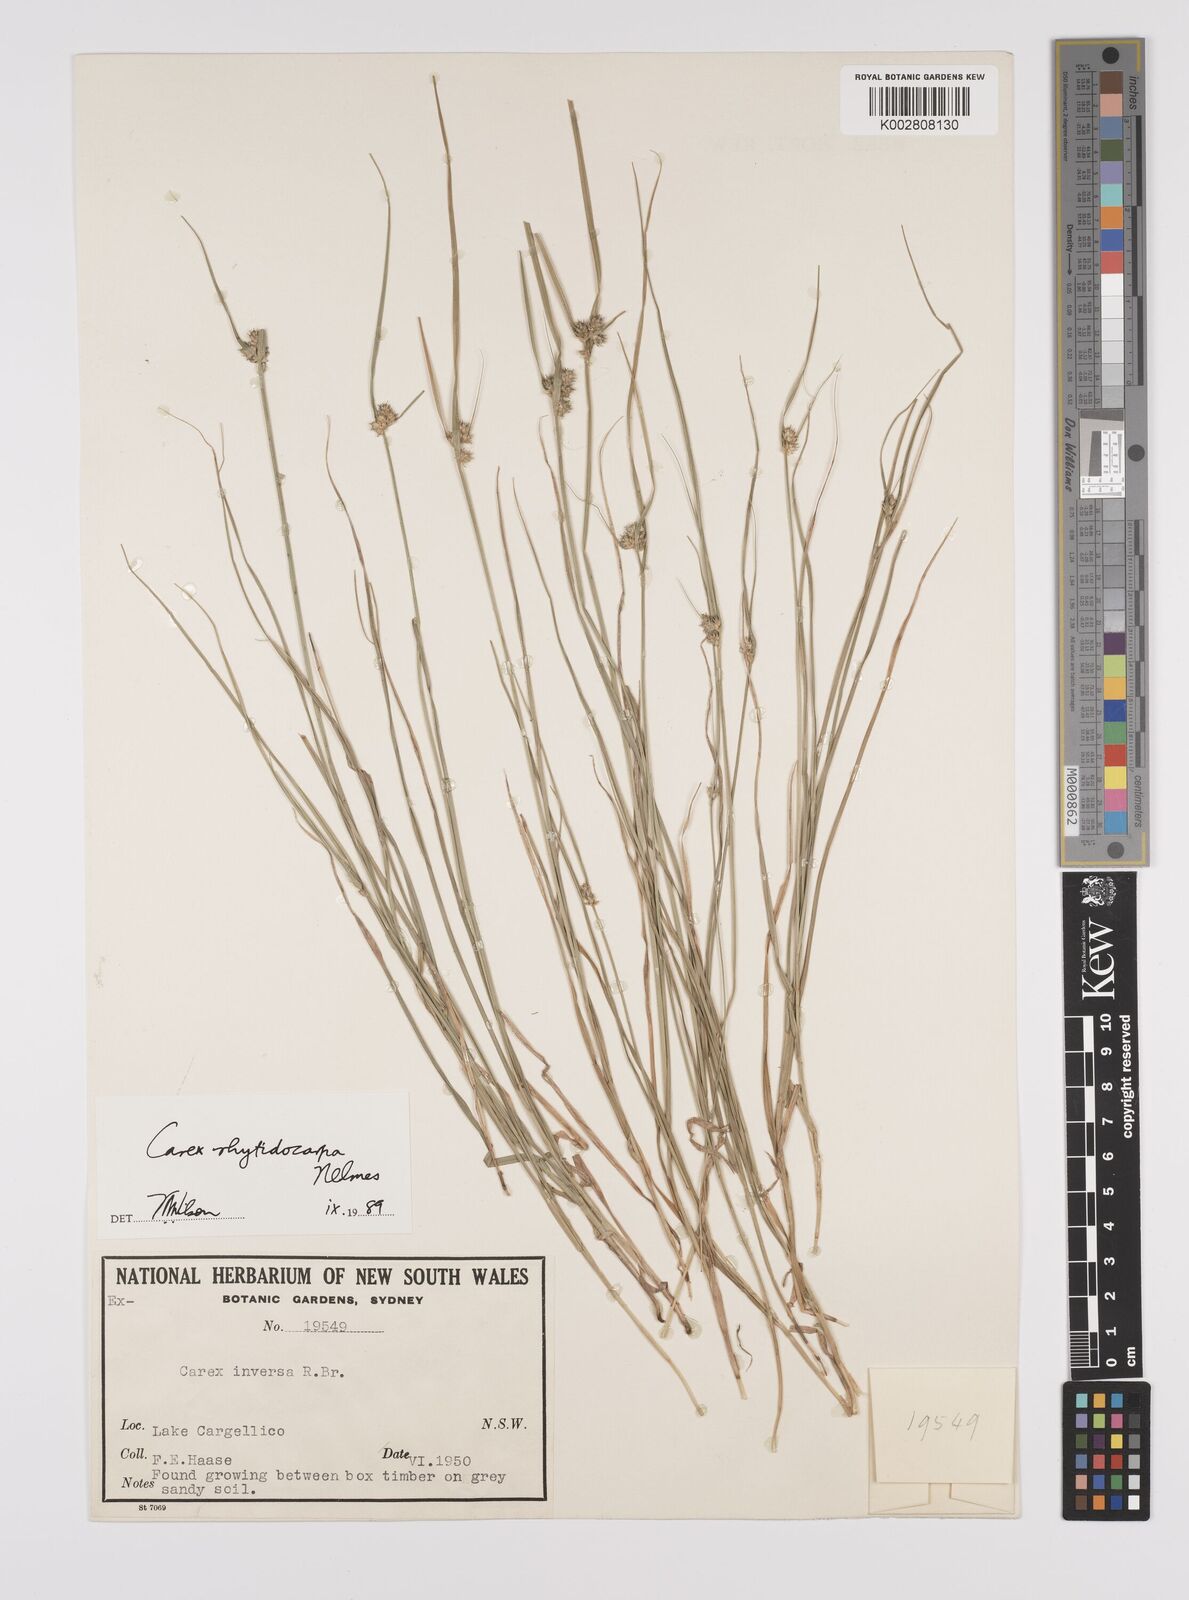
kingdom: Plantae
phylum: Tracheophyta
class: Liliopsida
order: Poales
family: Cyperaceae
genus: Carex
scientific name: Carex inversa
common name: Knob sedge
